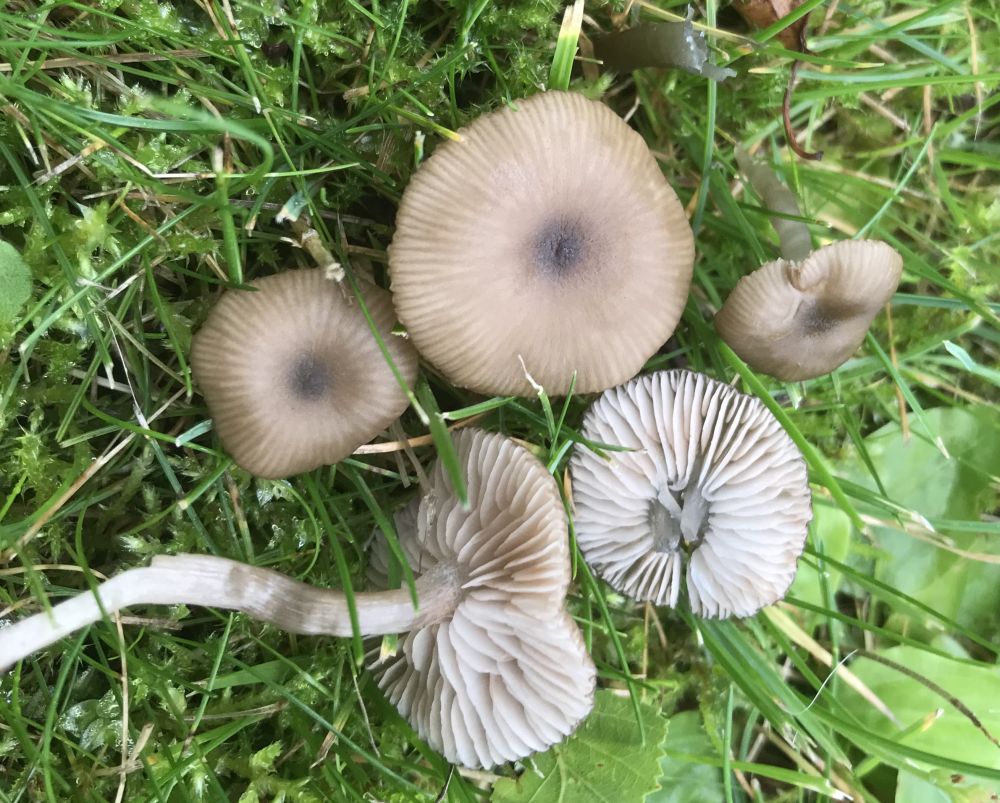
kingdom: Fungi
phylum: Basidiomycota
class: Agaricomycetes
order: Agaricales
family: Entolomataceae
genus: Entoloma
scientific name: Entoloma
